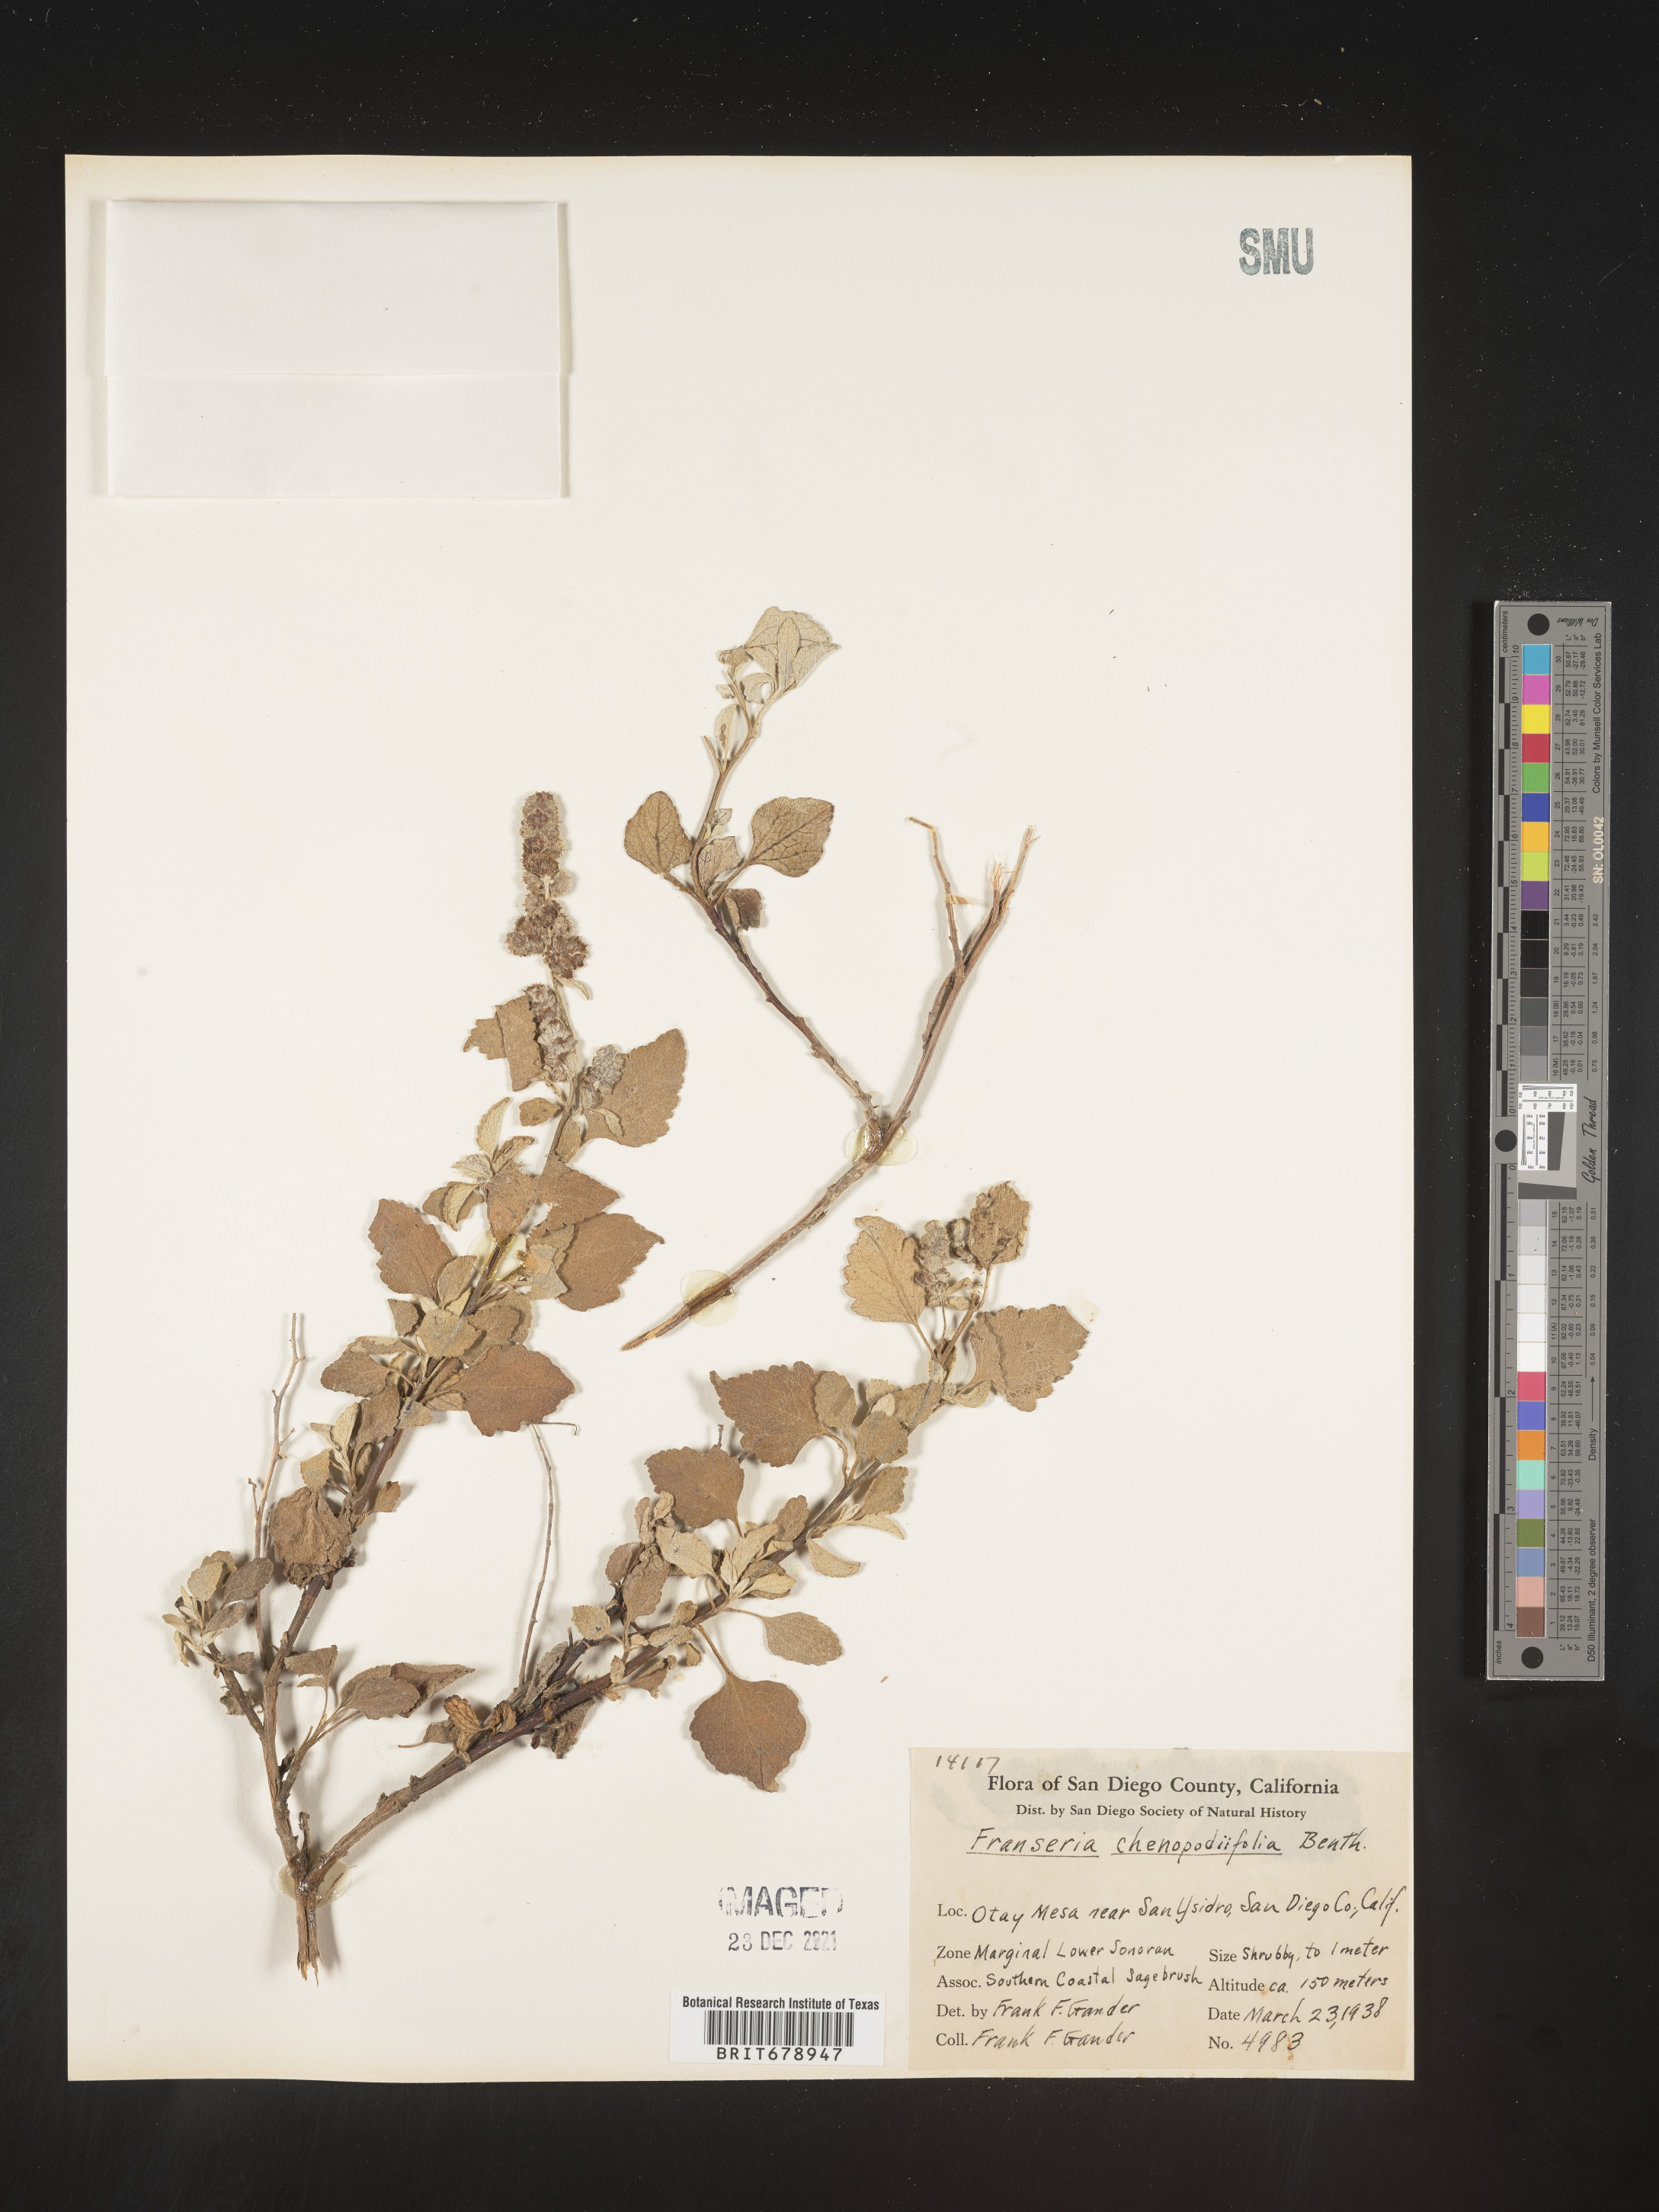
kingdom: Plantae
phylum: Tracheophyta
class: Magnoliopsida
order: Asterales
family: Asteraceae
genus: Ambrosia
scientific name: Ambrosia chenopodiifolia
